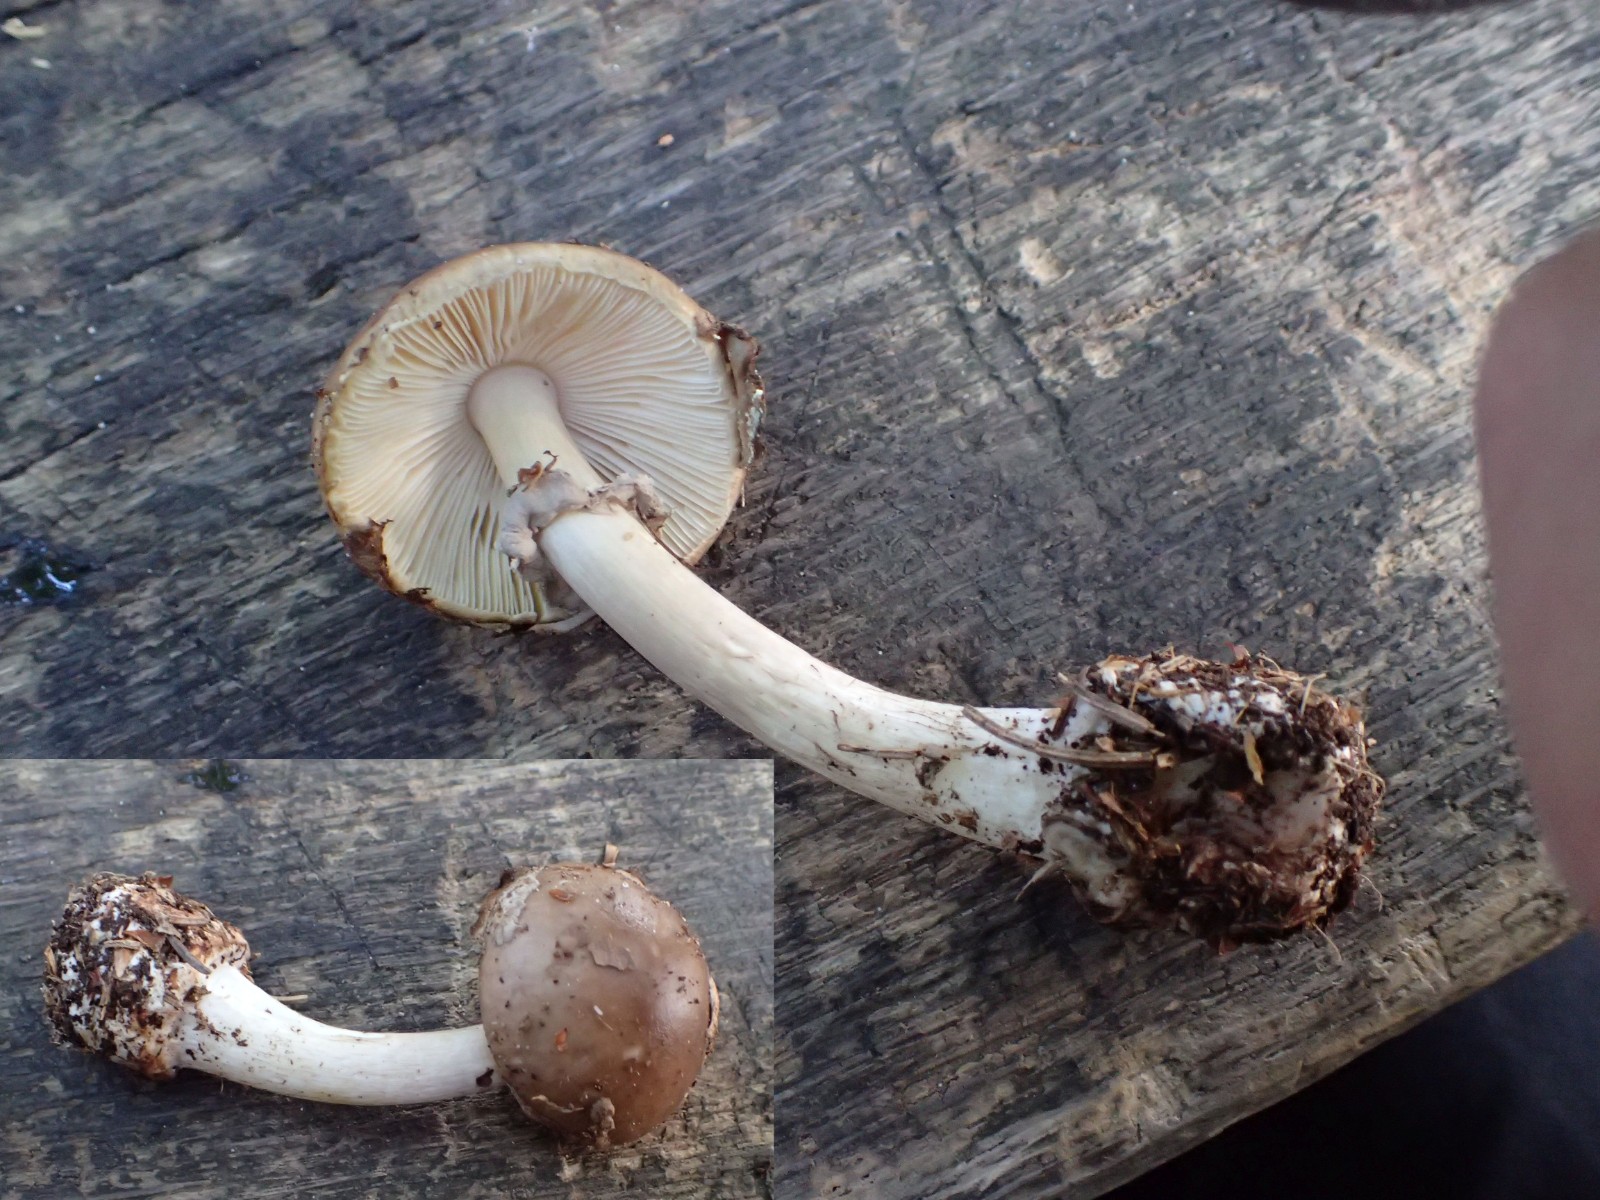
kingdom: Fungi
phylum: Basidiomycota
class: Agaricomycetes
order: Agaricales
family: Amanitaceae
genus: Amanita
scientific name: Amanita porphyria
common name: porfyr-fluesvamp
